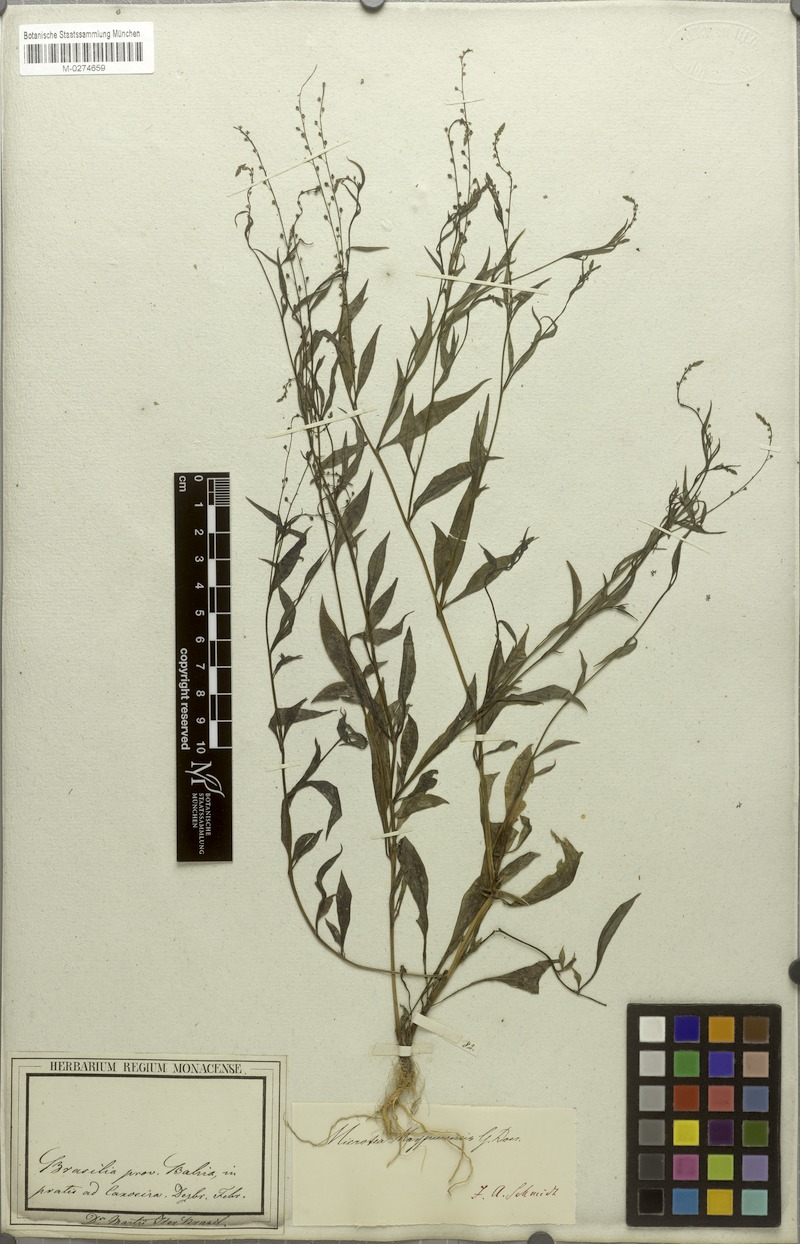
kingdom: Plantae
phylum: Tracheophyta
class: Magnoliopsida
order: Caryophyllales
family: Microteaceae
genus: Microtea
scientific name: Microtea maypurensis
